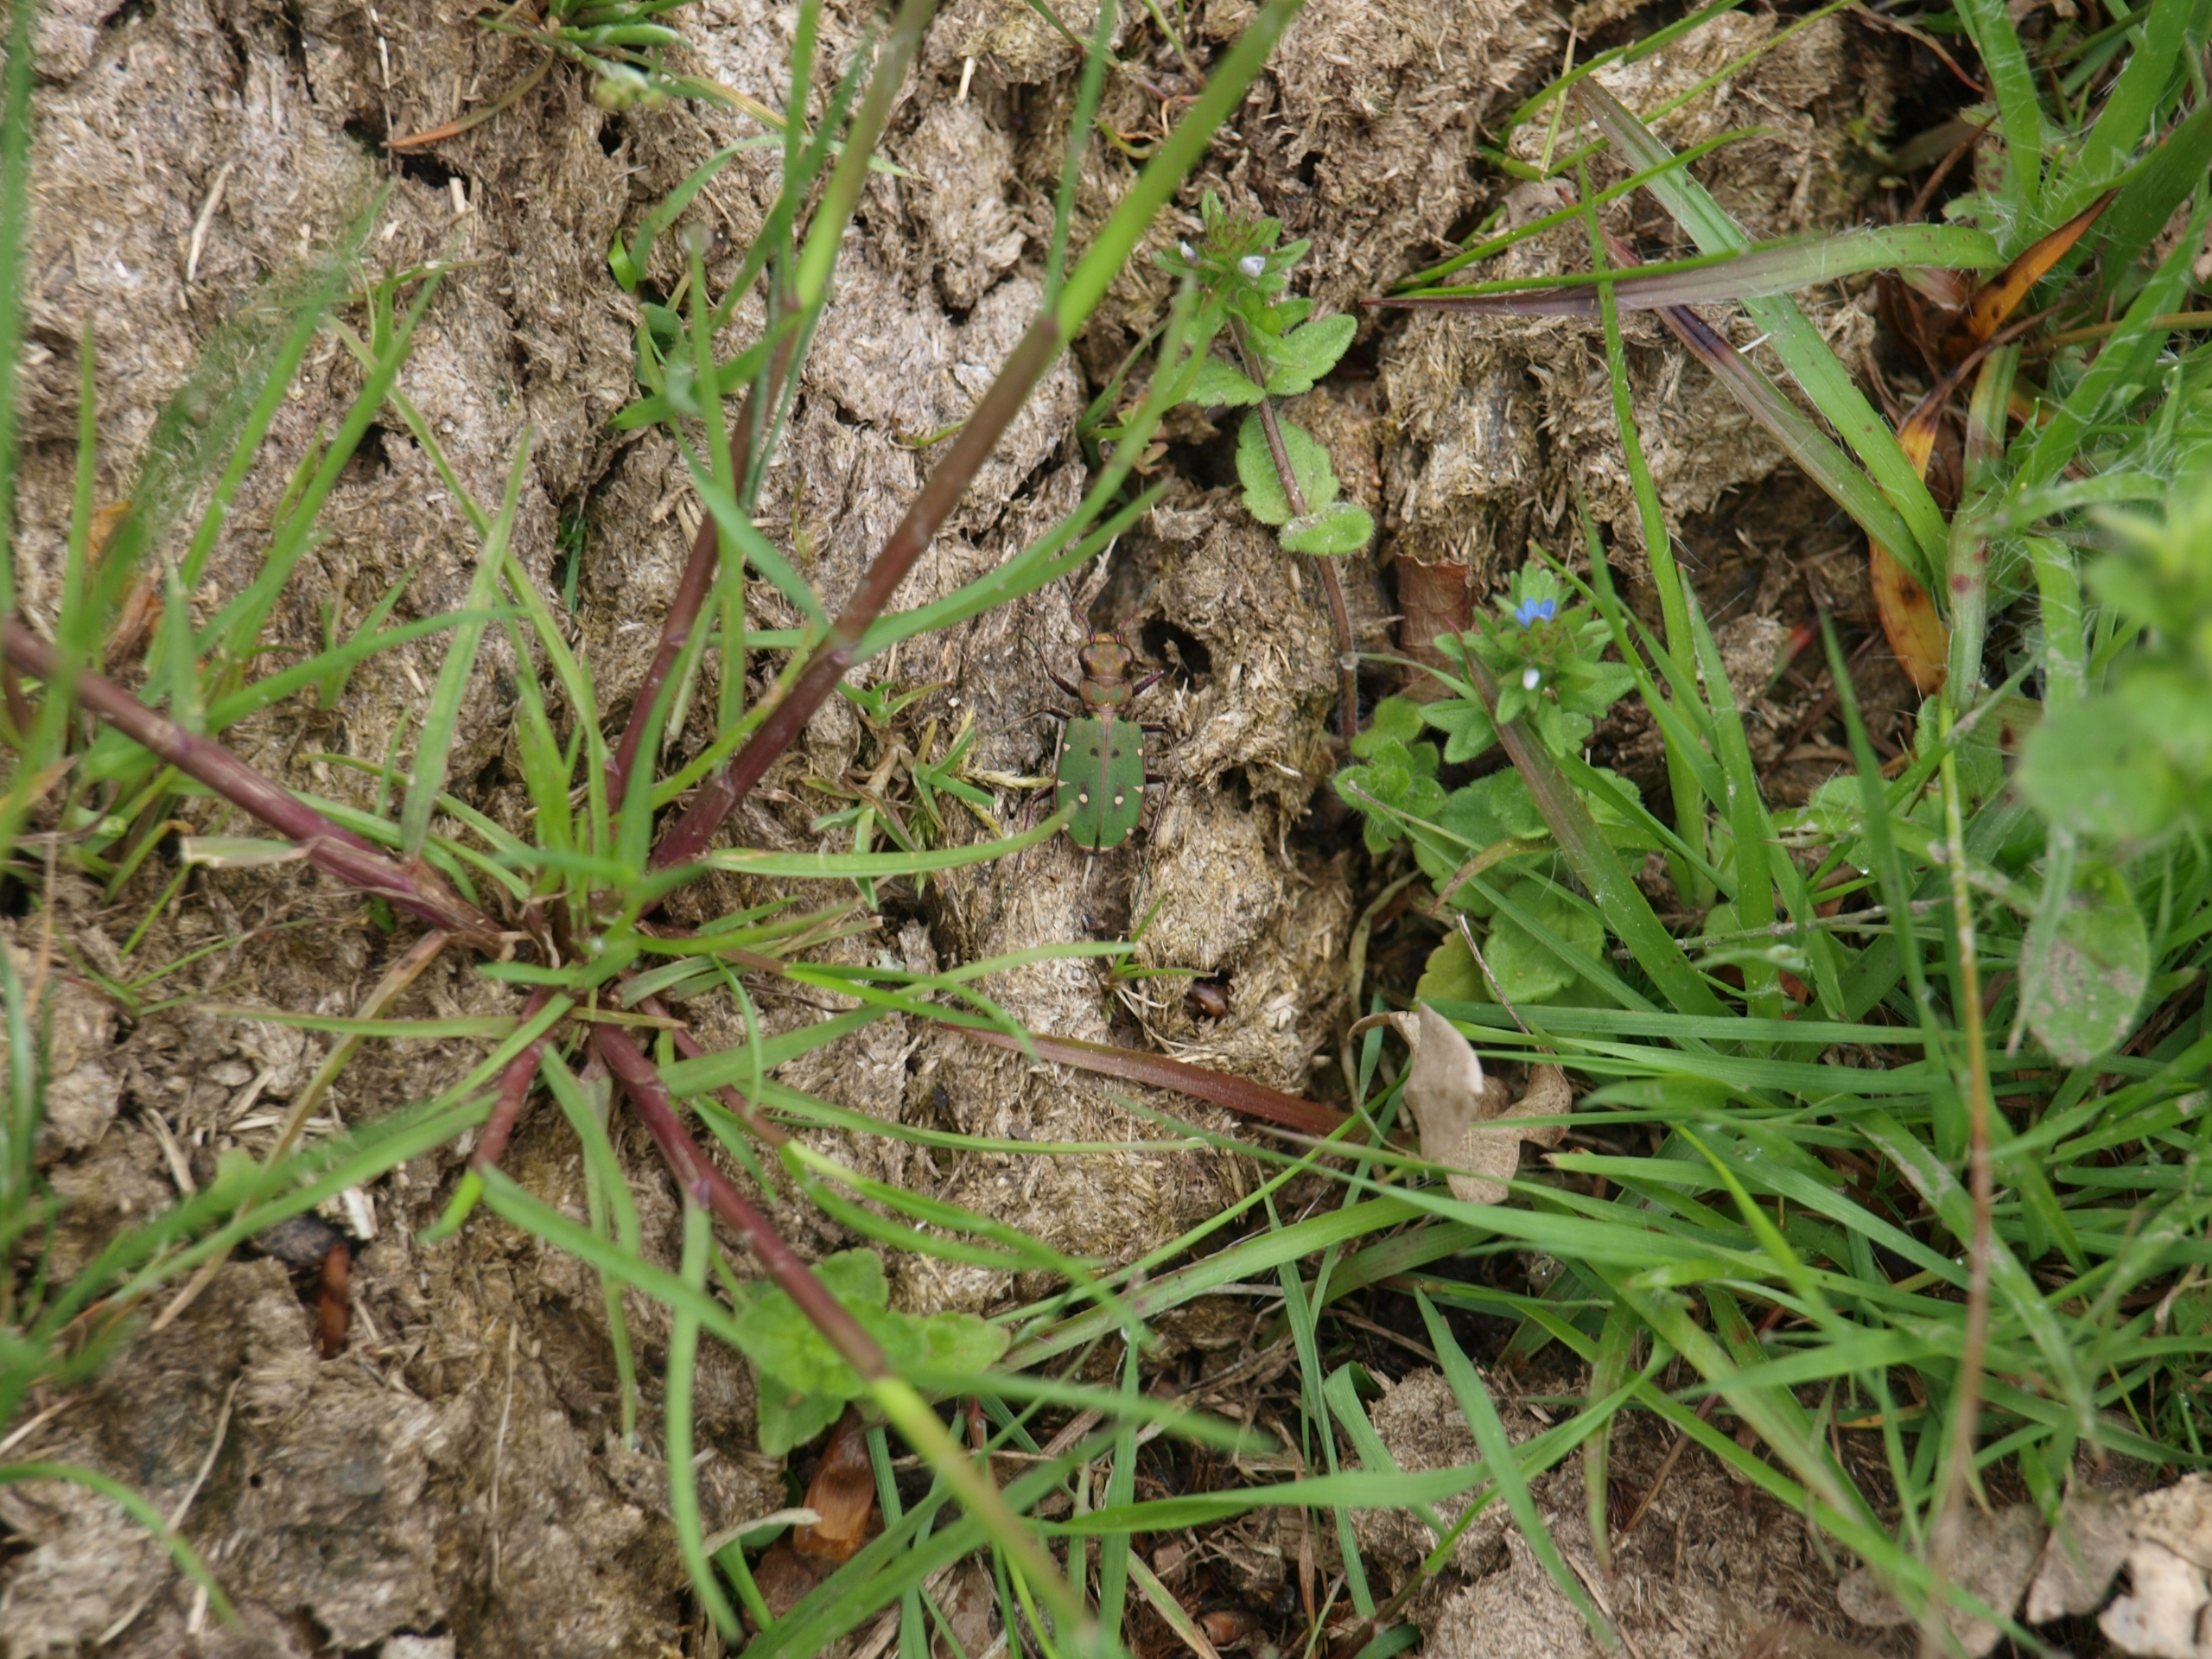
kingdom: Animalia
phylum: Arthropoda
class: Insecta
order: Coleoptera
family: Carabidae
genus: Cicindela
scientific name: Cicindela campestris
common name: Grøn sandspringer
